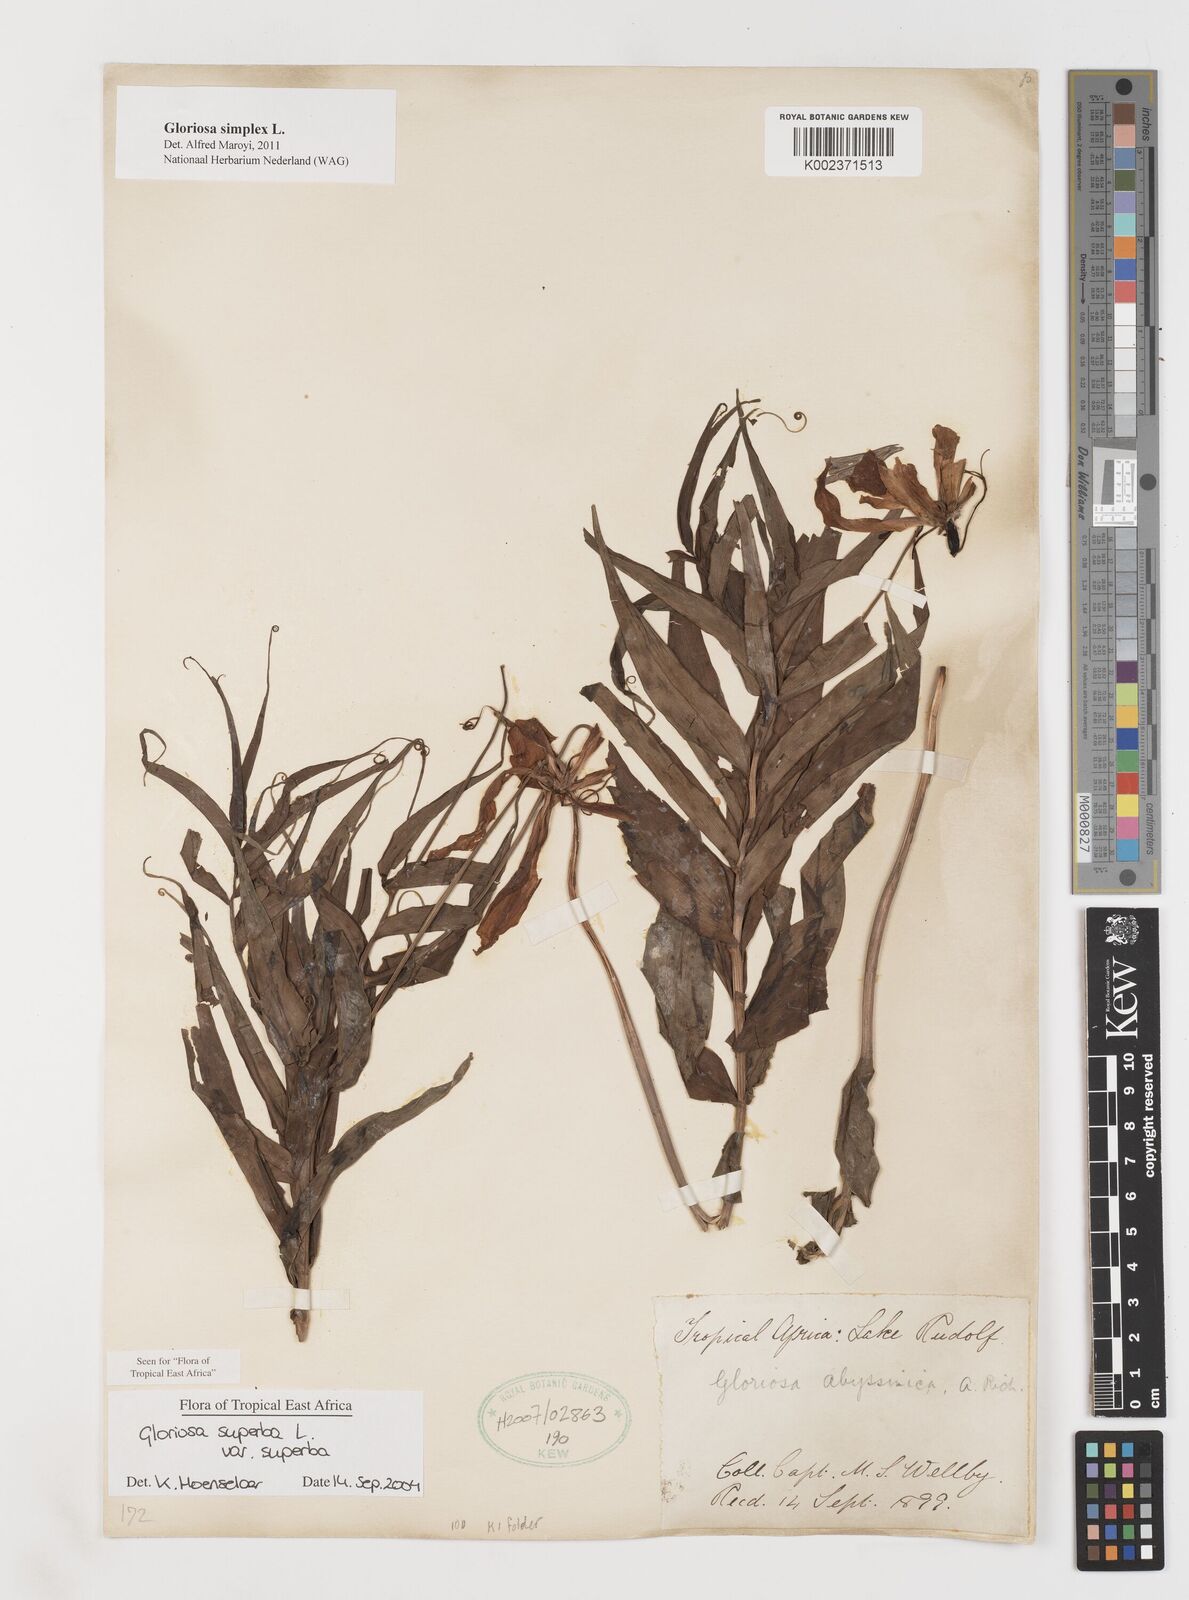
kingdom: Plantae
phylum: Tracheophyta
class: Liliopsida
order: Liliales
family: Colchicaceae
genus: Gloriosa
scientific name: Gloriosa simplex
